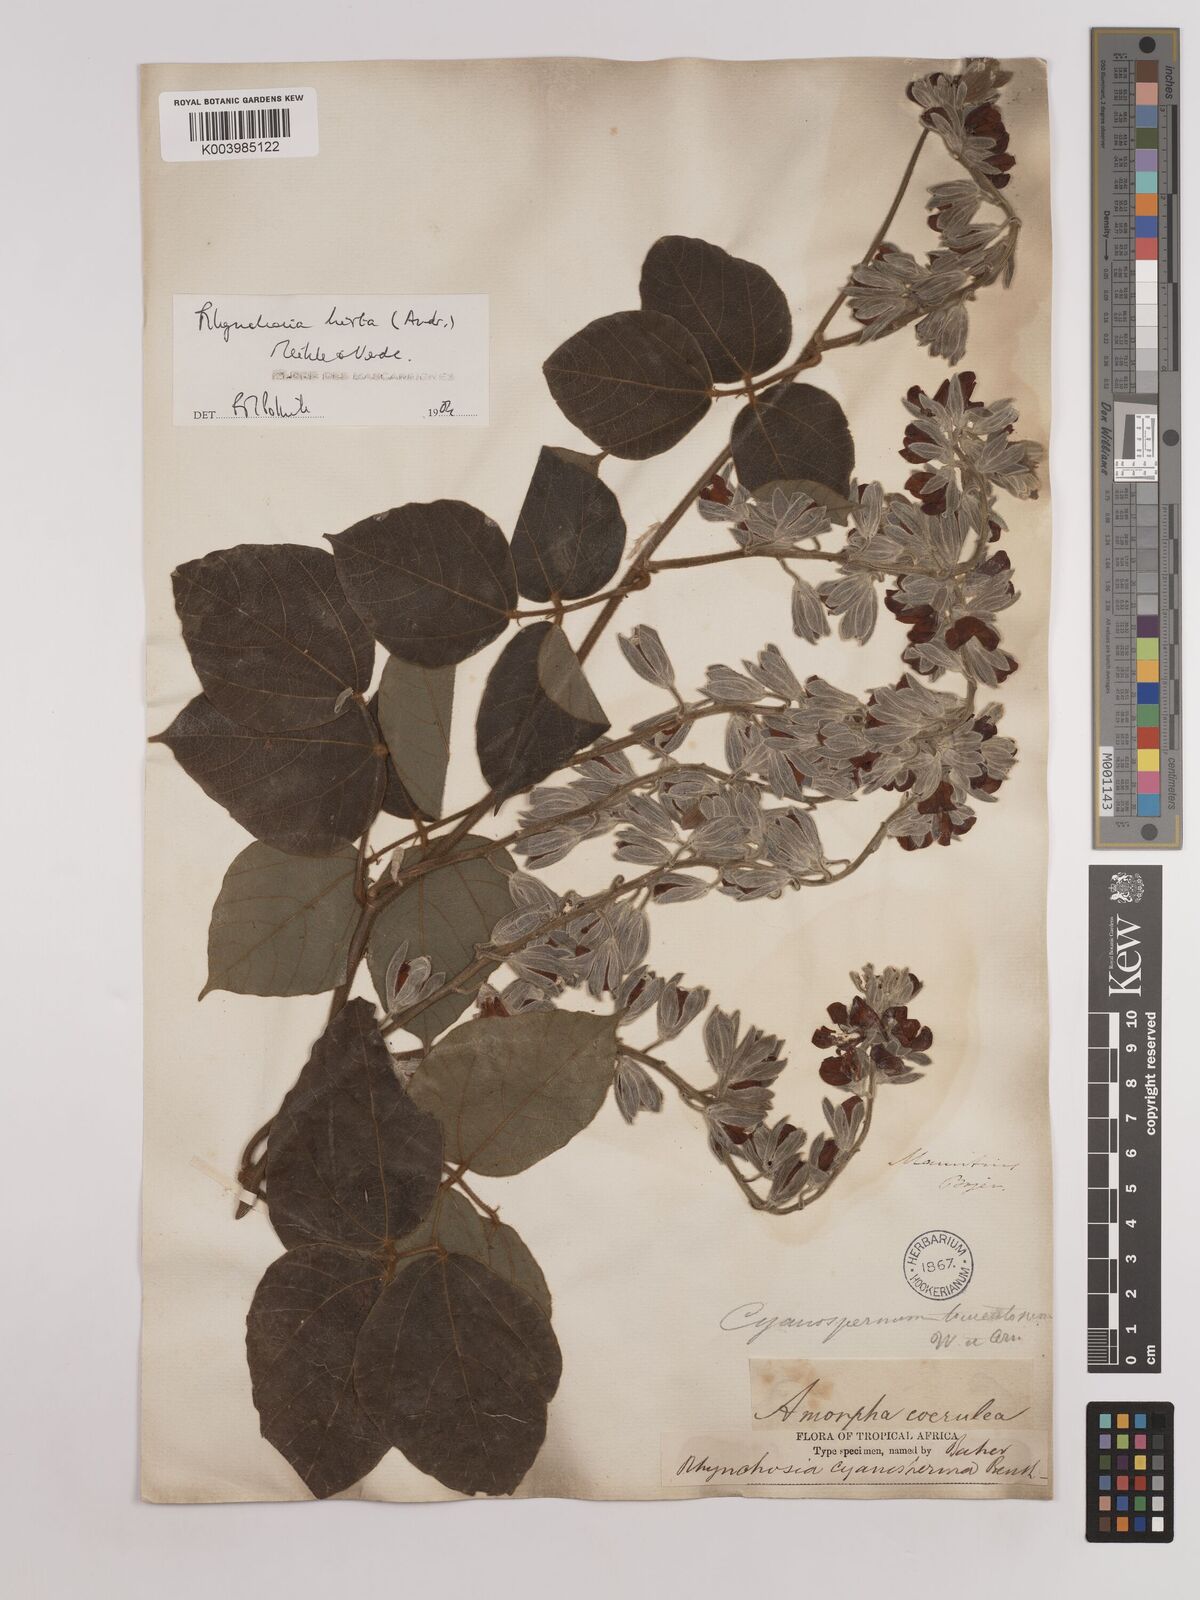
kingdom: Plantae
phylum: Tracheophyta
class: Magnoliopsida
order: Fabales
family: Fabaceae
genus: Rhynchosia
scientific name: Rhynchosia hirta
